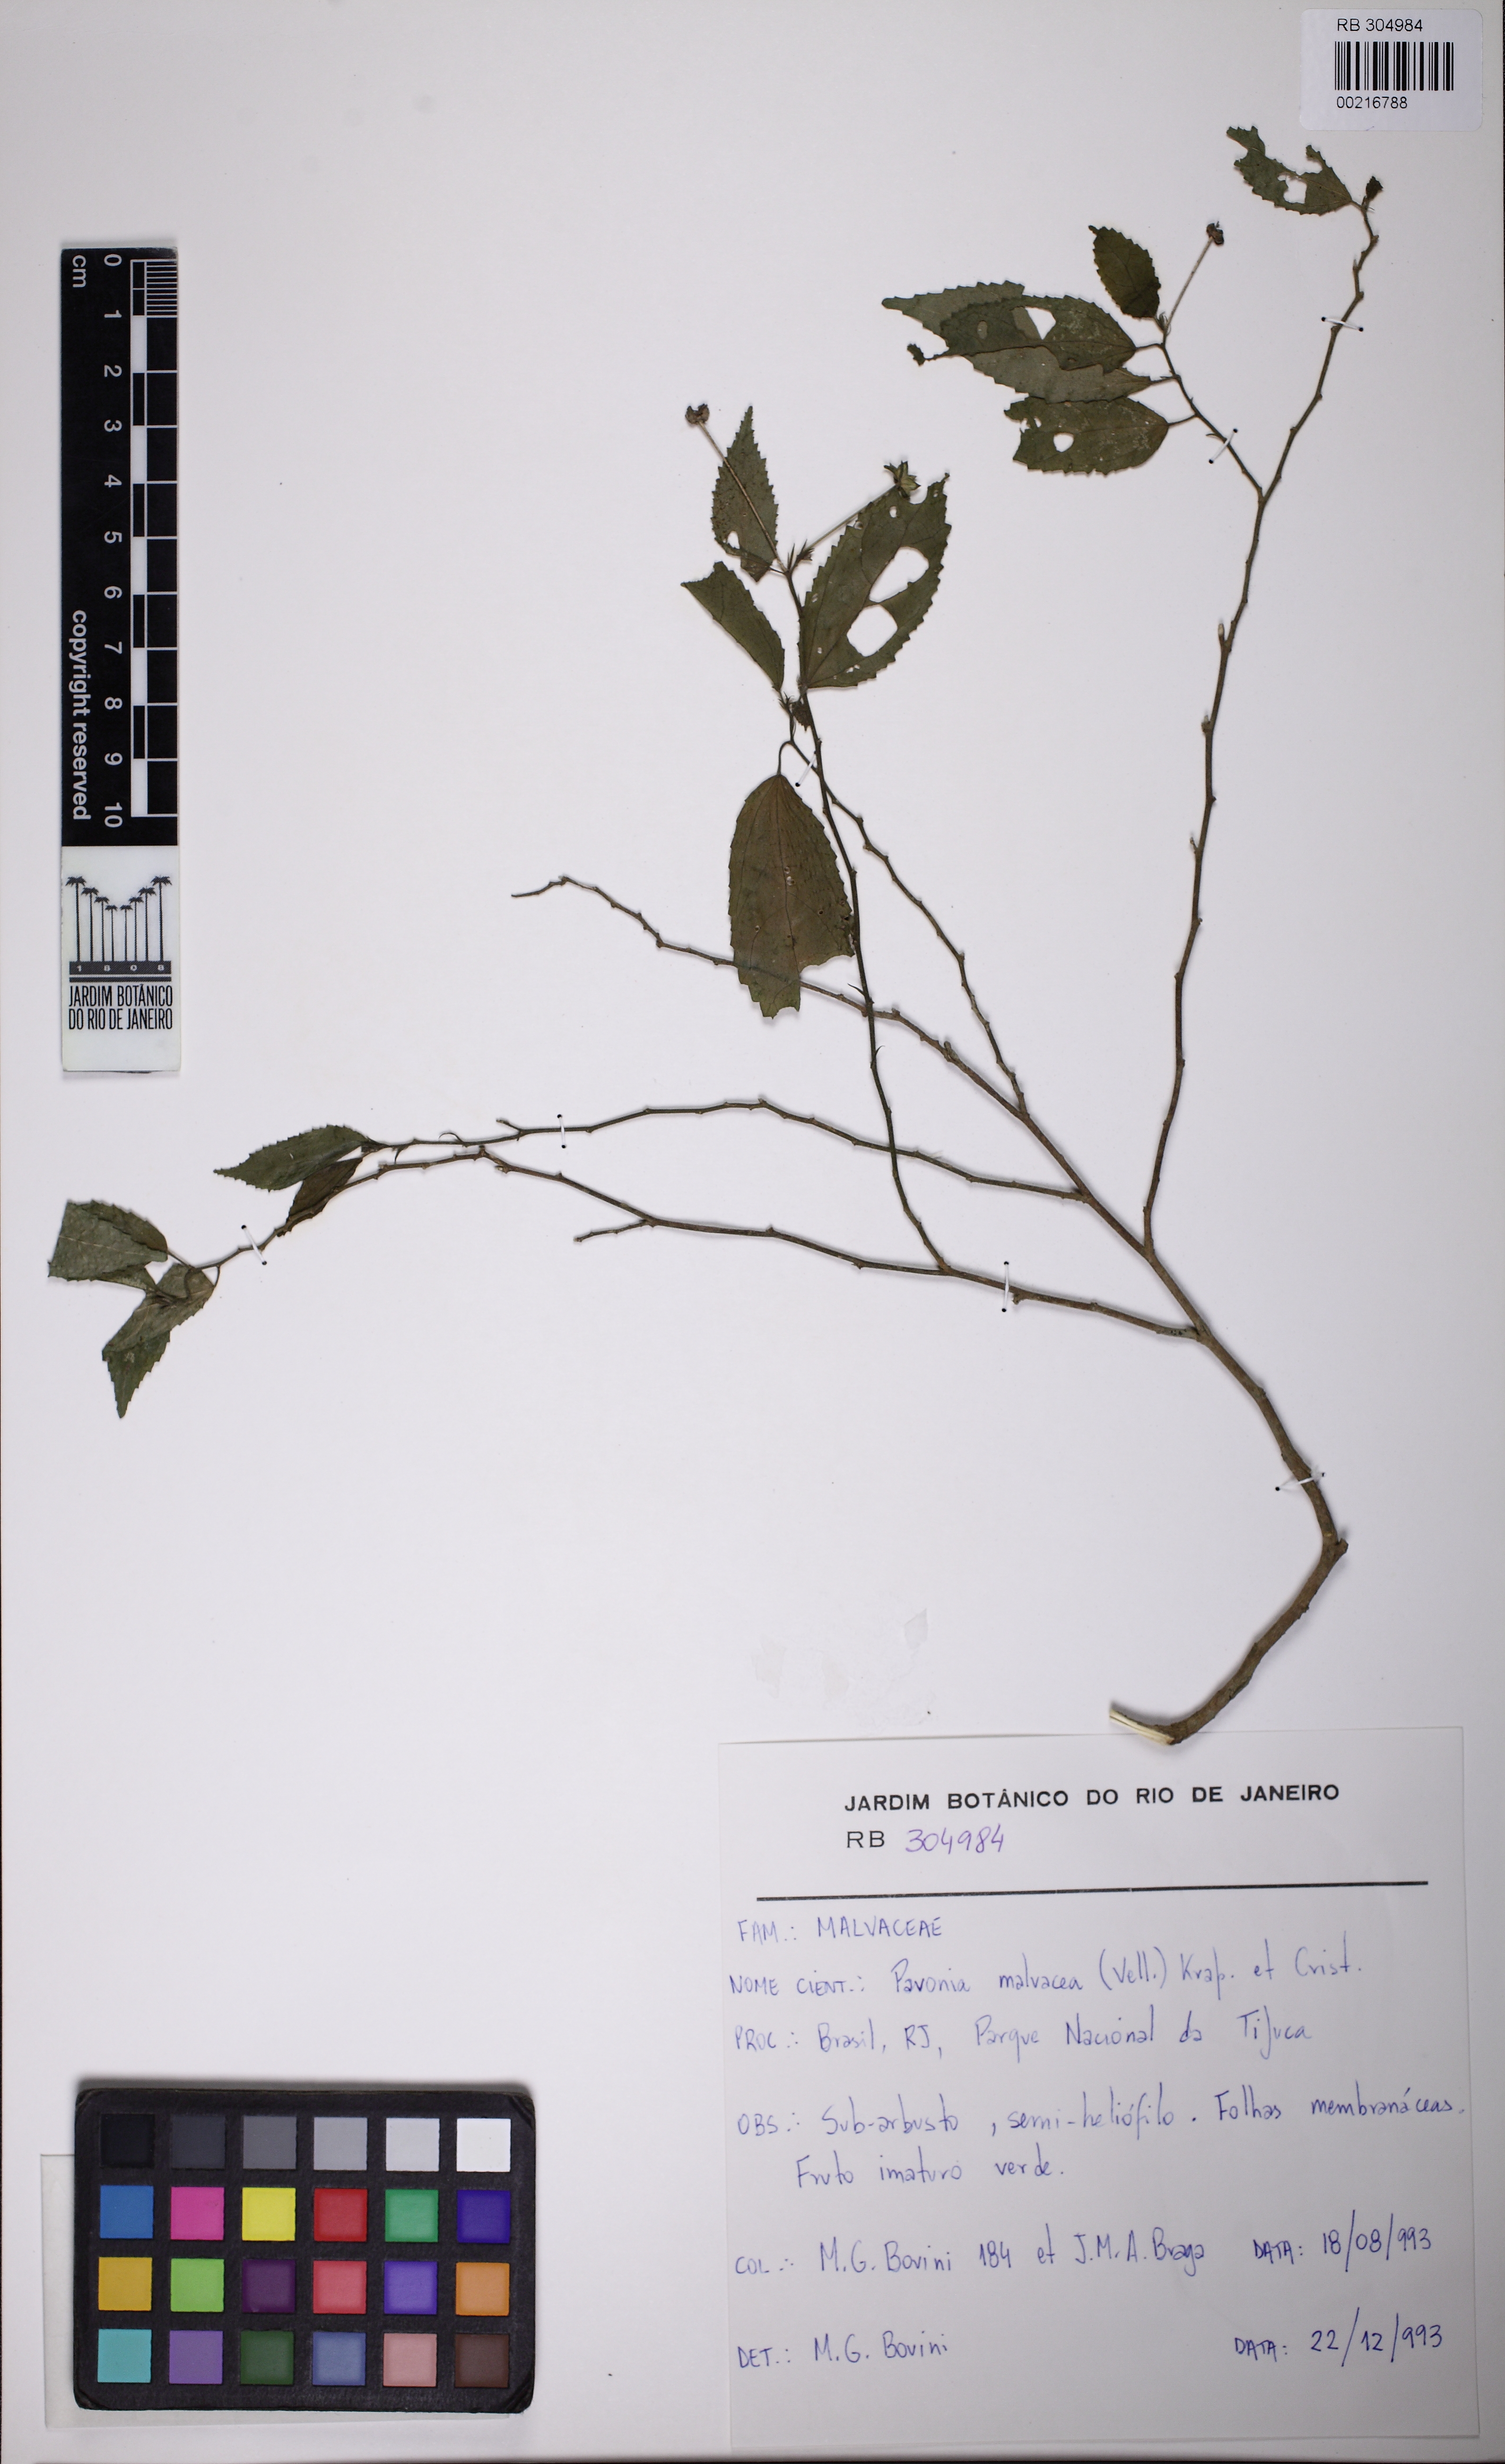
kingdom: Plantae
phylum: Tracheophyta
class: Magnoliopsida
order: Malvales
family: Malvaceae
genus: Pavonia
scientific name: Pavonia sepium
